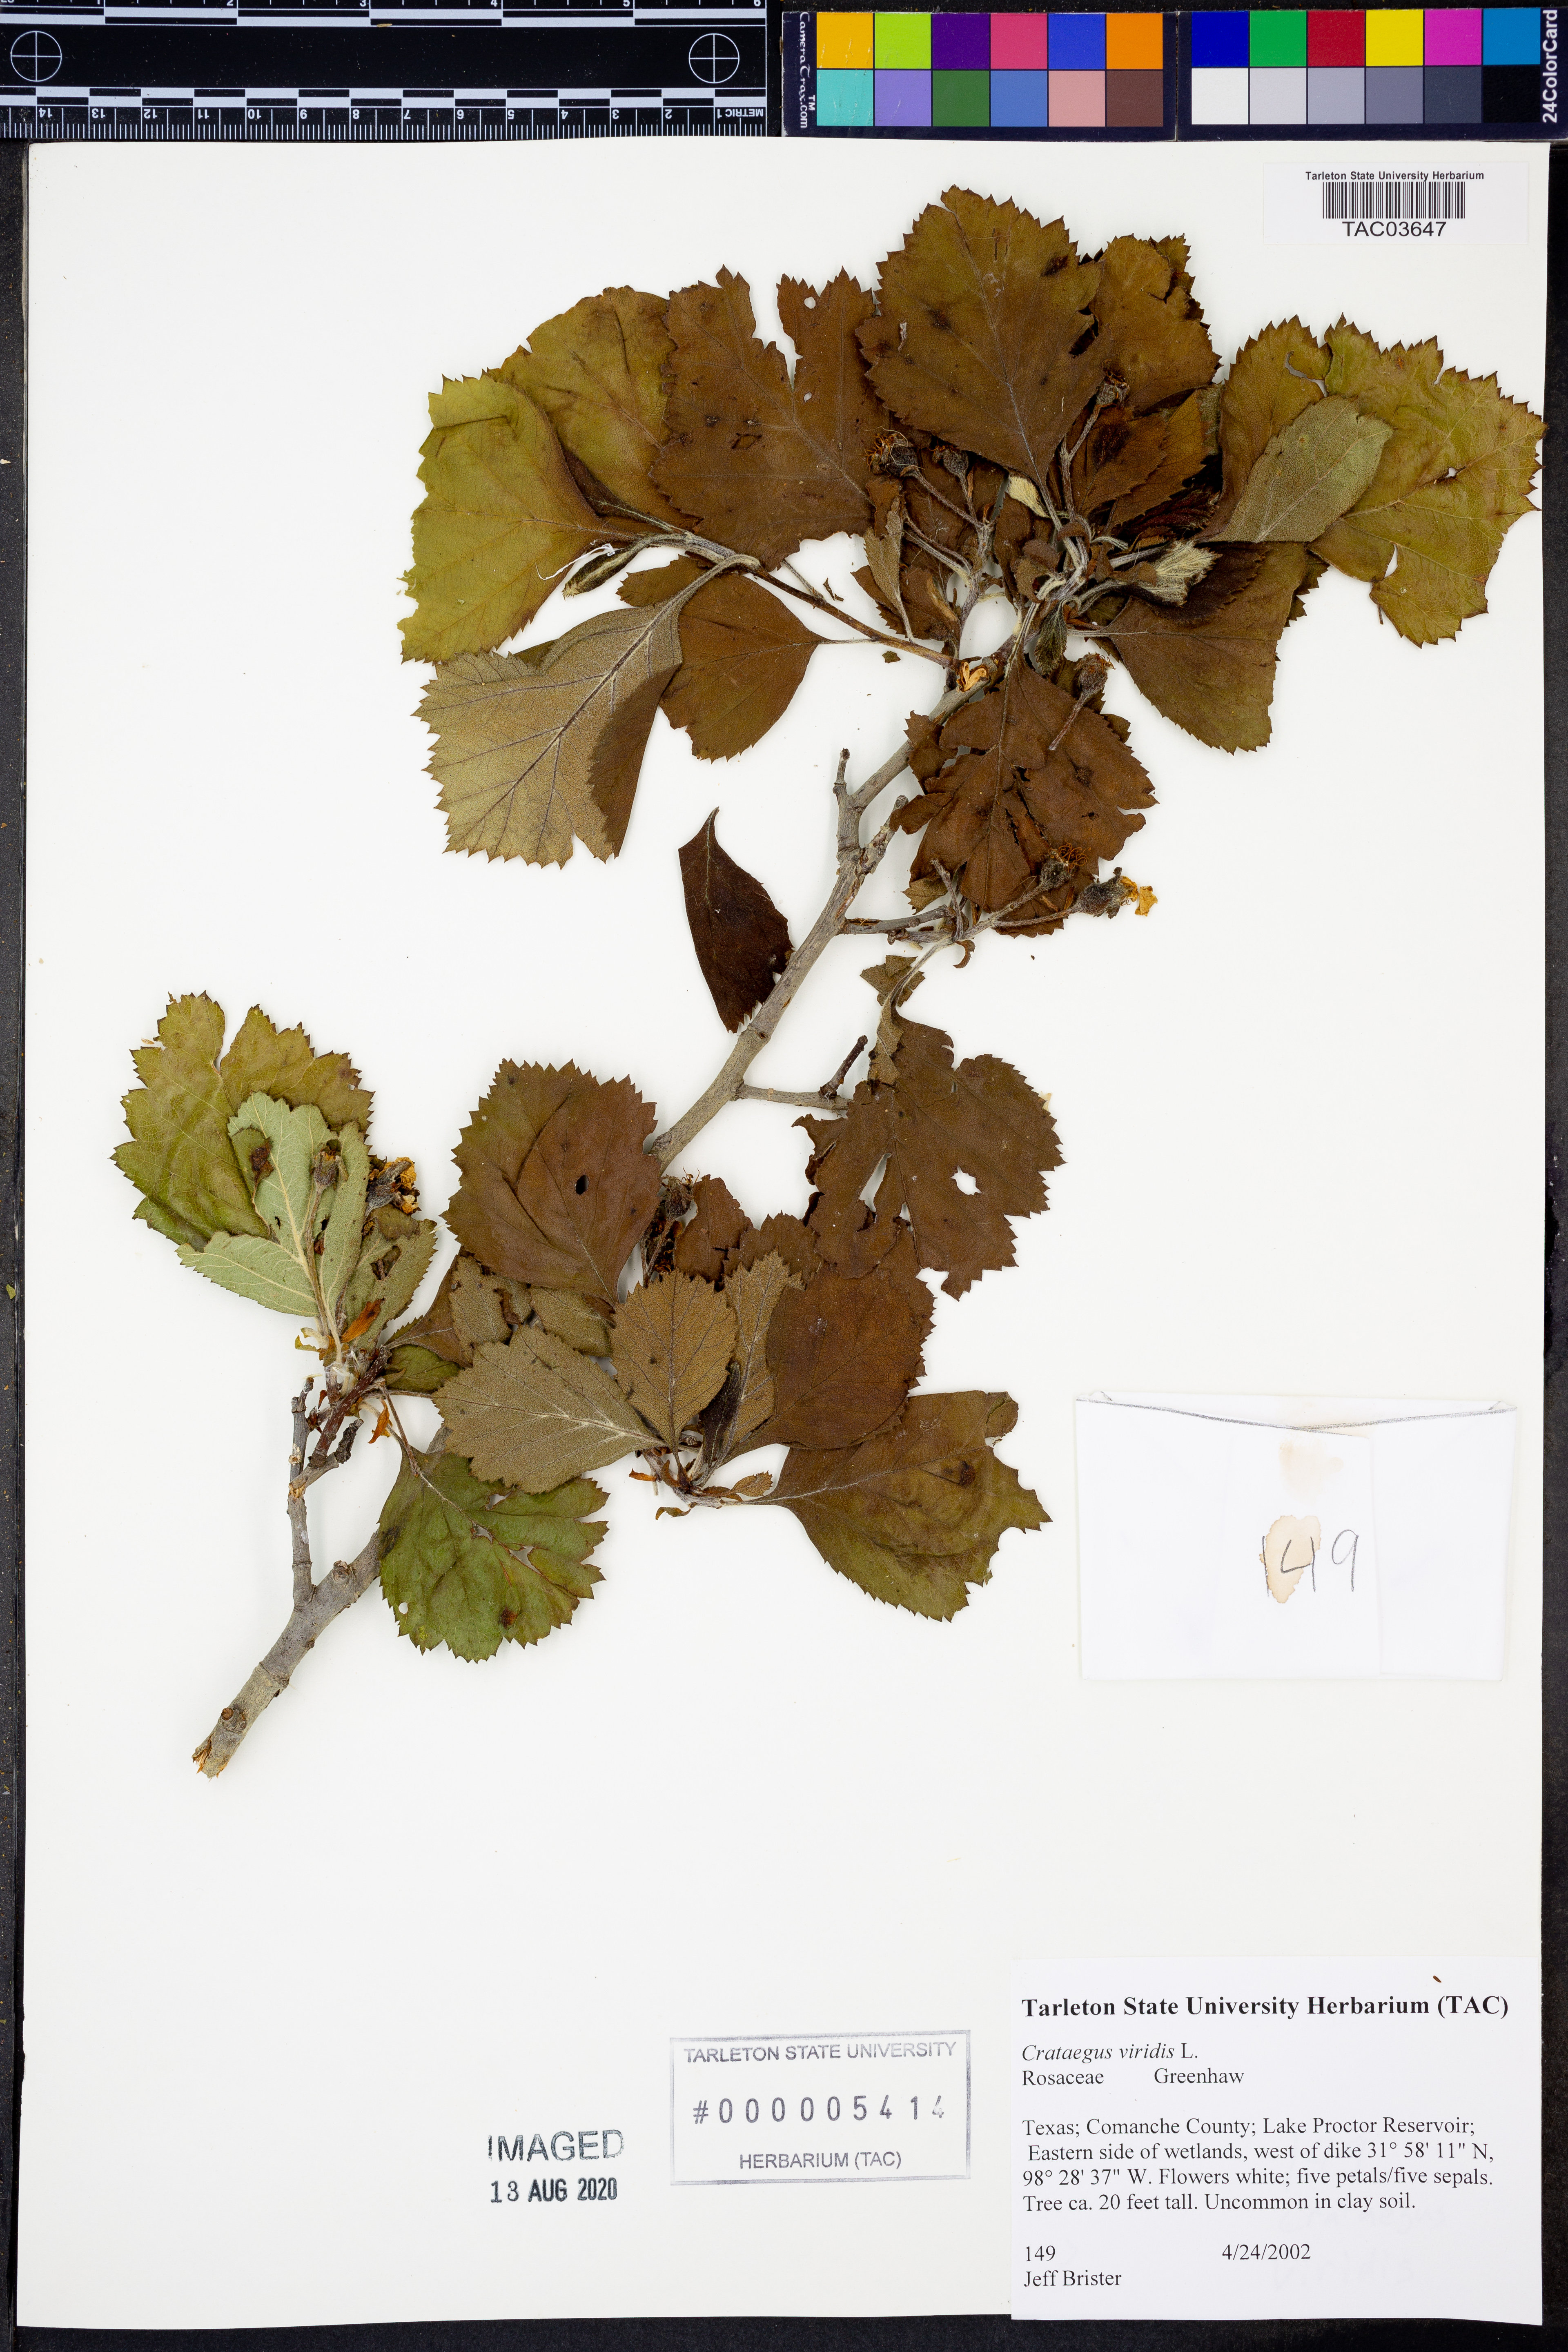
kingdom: Plantae
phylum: Tracheophyta
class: Magnoliopsida
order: Rosales
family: Rosaceae
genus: Crataegus
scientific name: Crataegus viridis
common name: Southernthorn
